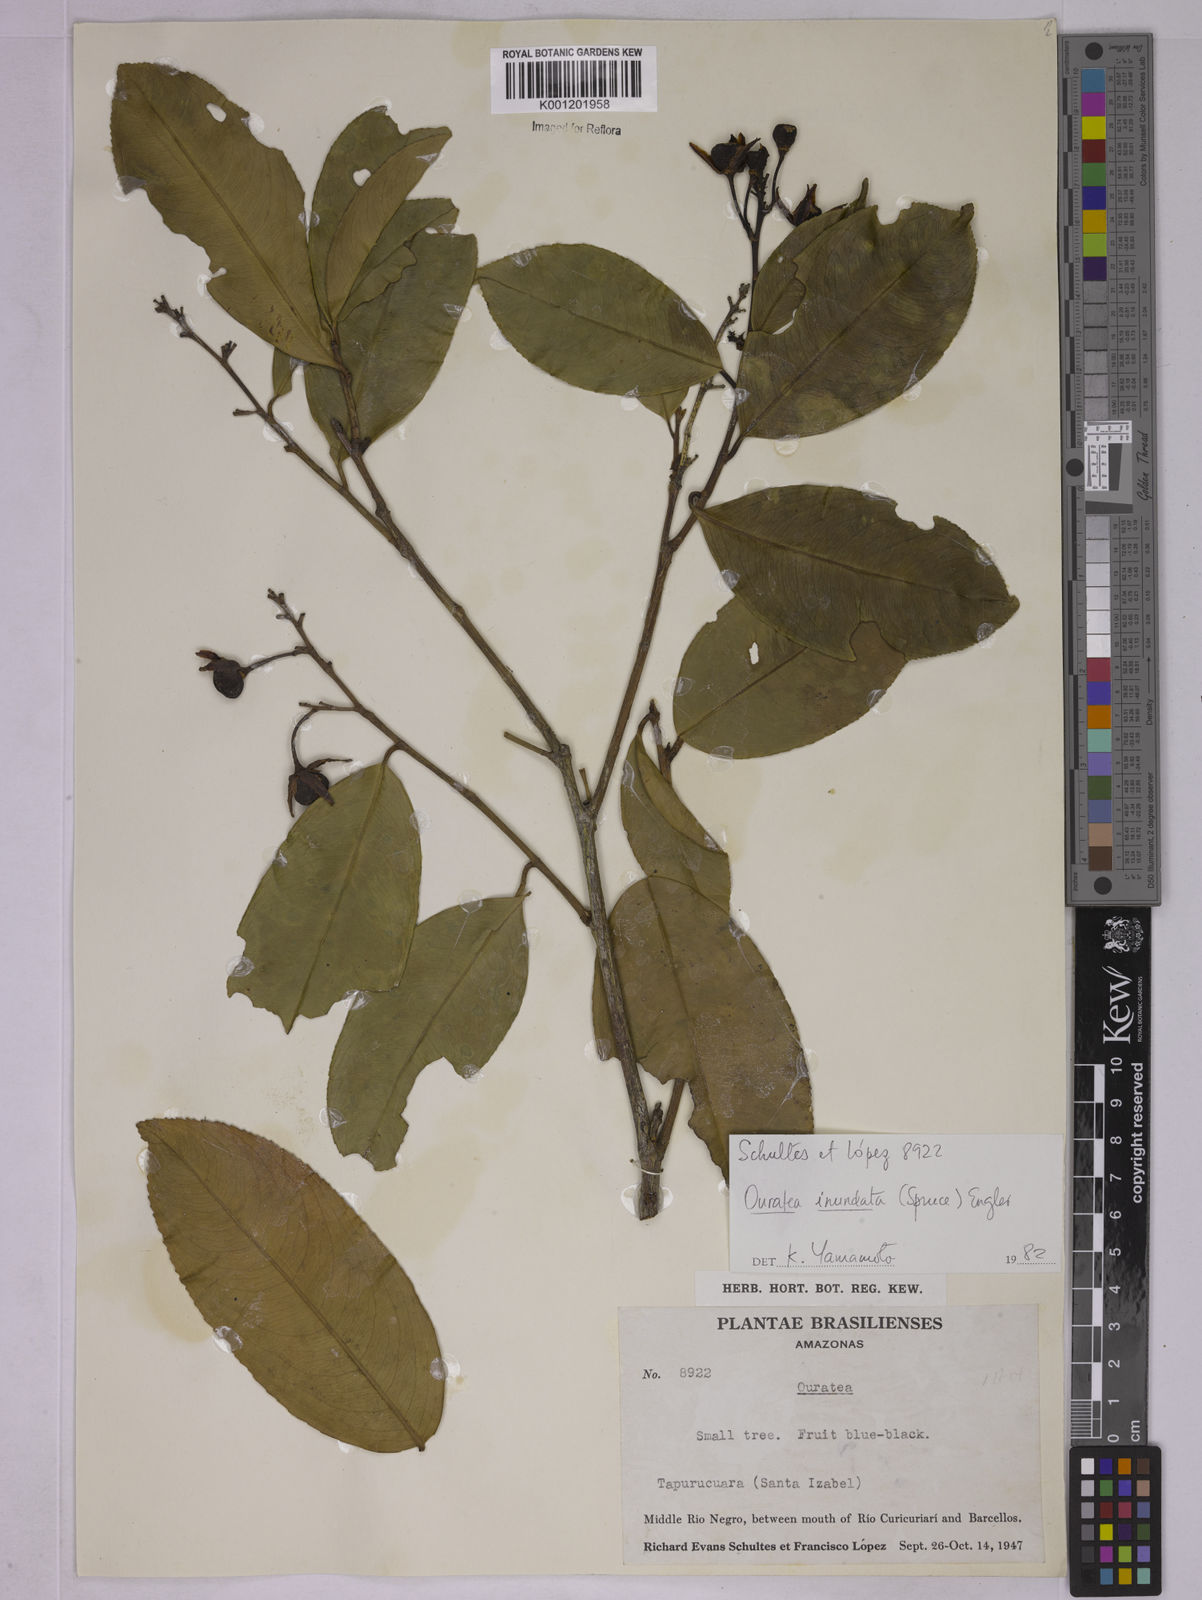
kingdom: Plantae
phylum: Tracheophyta
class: Magnoliopsida
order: Malpighiales
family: Ochnaceae
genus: Ouratea
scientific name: Ouratea inundata
